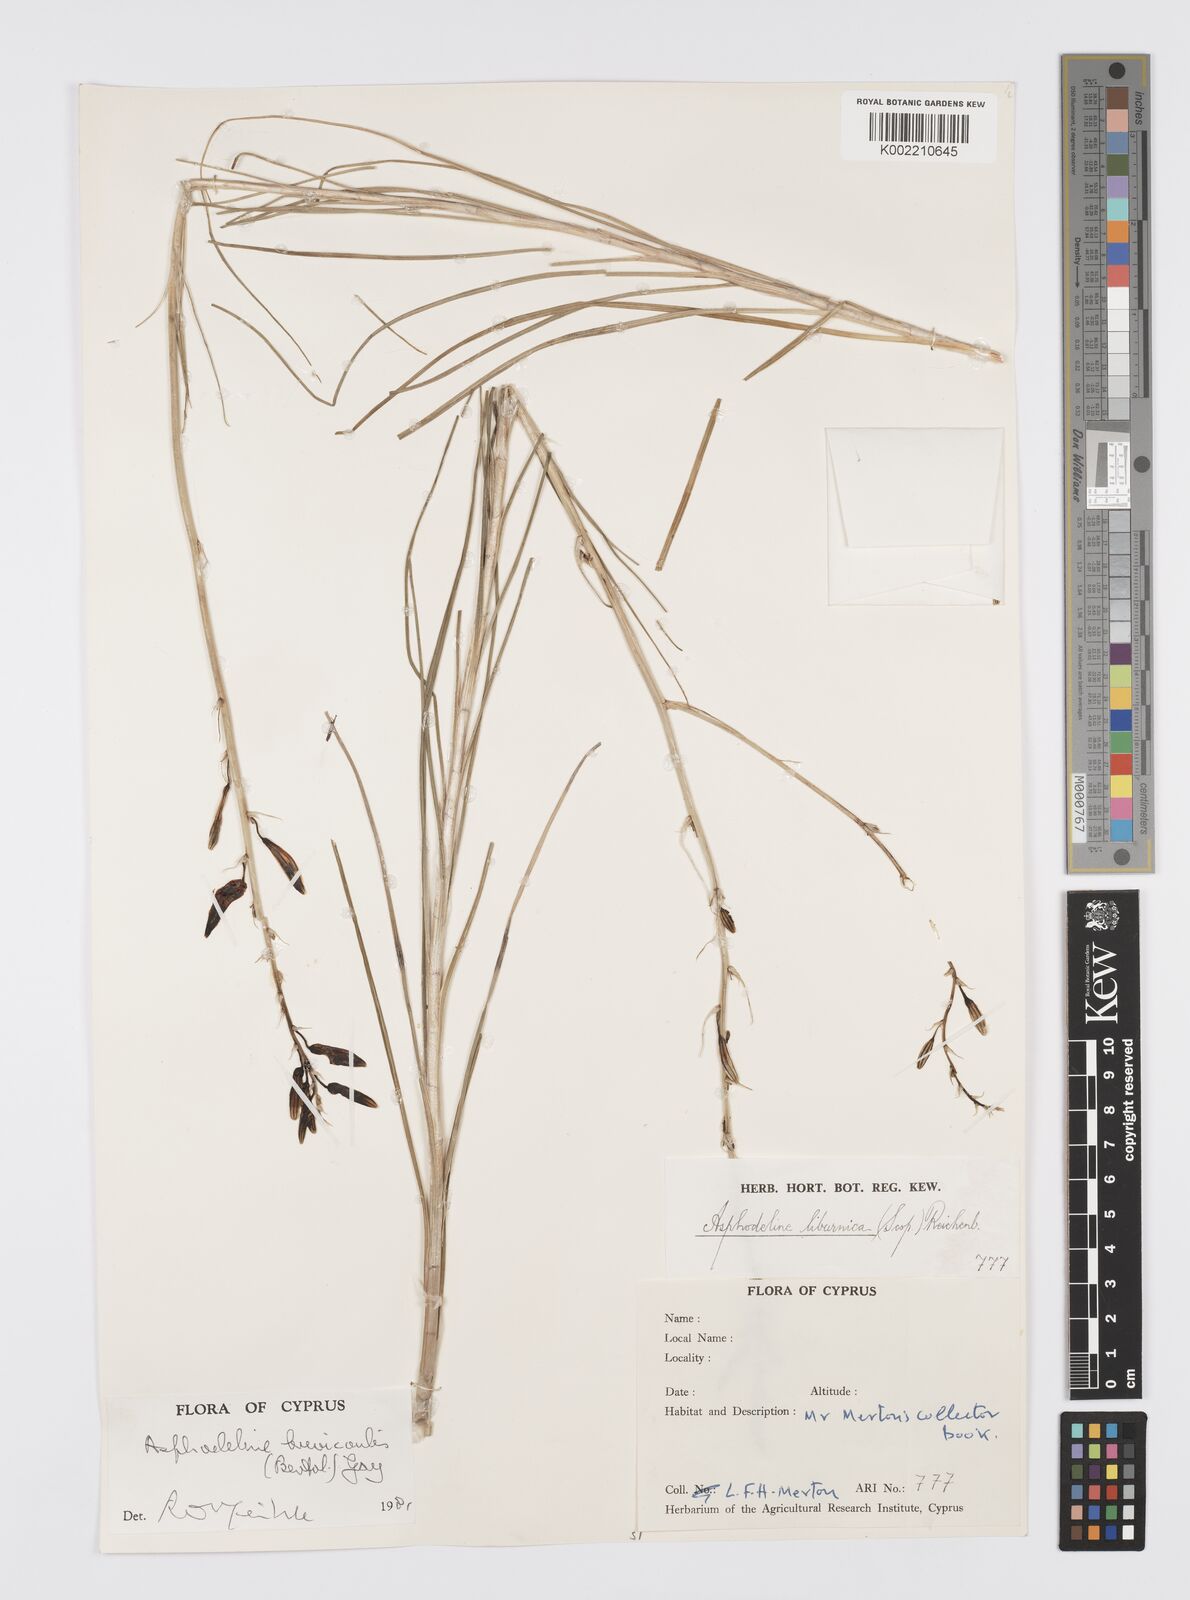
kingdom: Plantae
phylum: Tracheophyta
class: Liliopsida
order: Asparagales
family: Asphodelaceae
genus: Asphodeline
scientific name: Asphodeline brevicaulis
